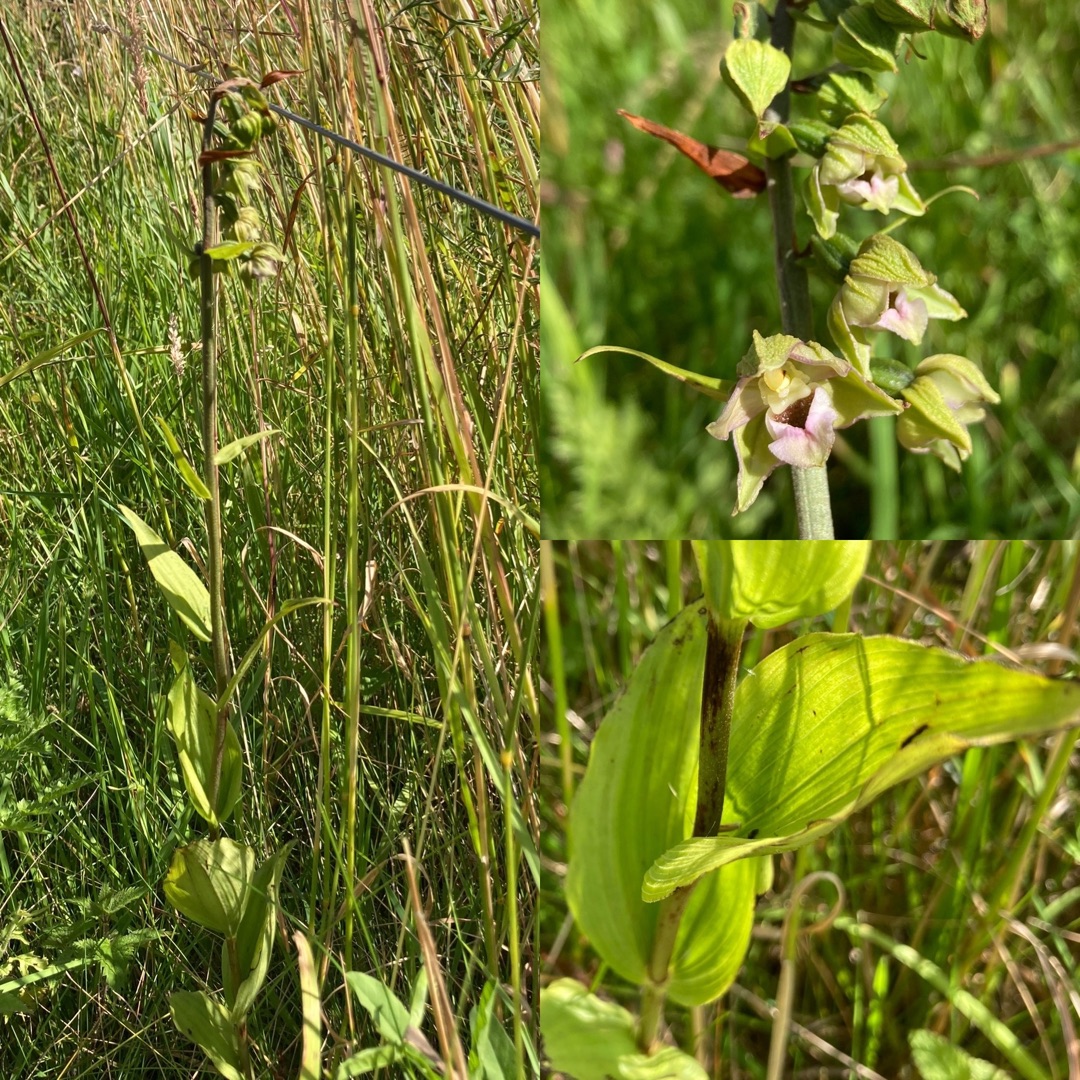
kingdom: Plantae
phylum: Tracheophyta
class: Liliopsida
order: Asparagales
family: Orchidaceae
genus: Epipactis
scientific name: Epipactis helleborine
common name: Skov-hullæbe
